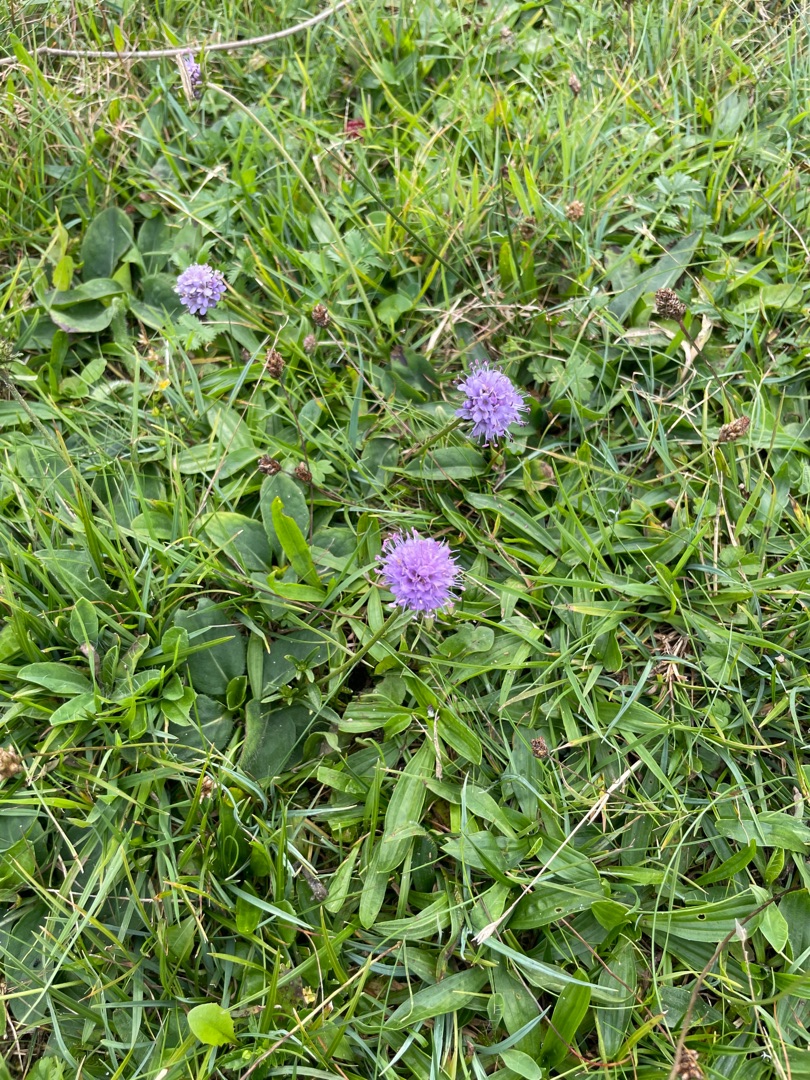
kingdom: Plantae
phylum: Tracheophyta
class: Magnoliopsida
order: Dipsacales
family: Caprifoliaceae
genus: Succisa
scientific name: Succisa pratensis
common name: Djævelsbid
